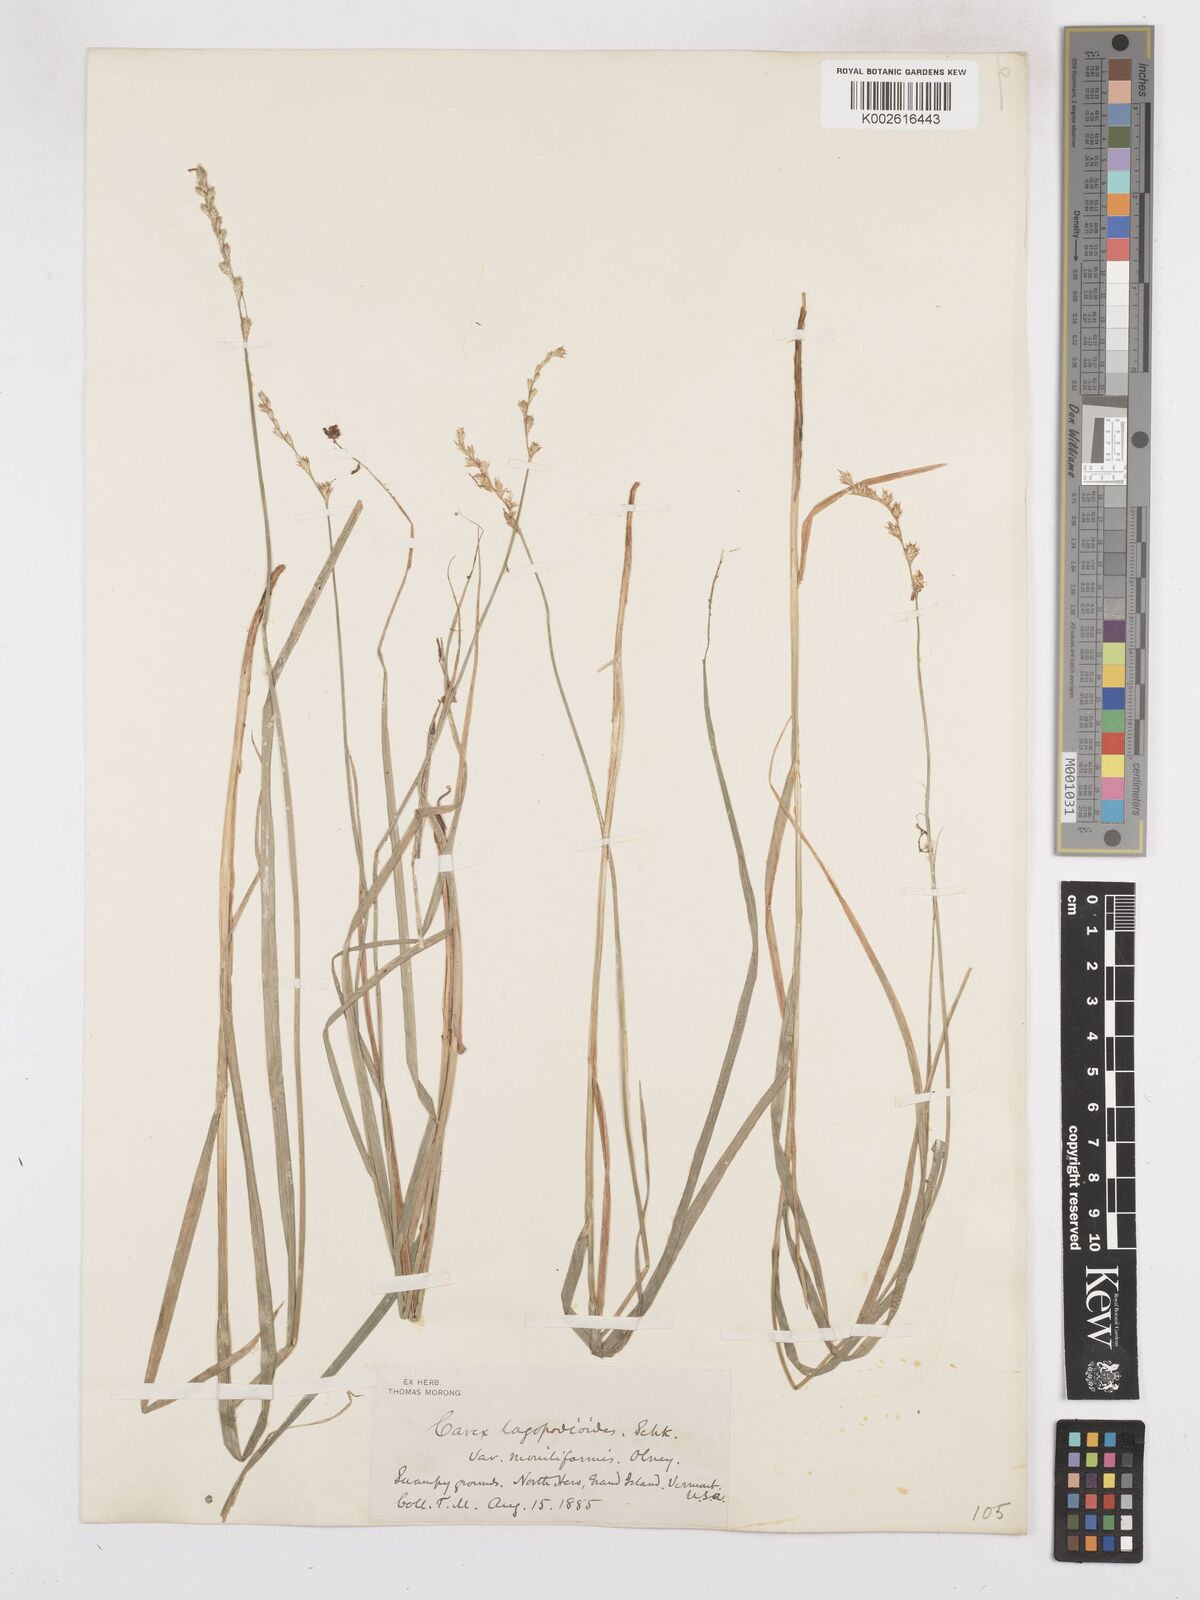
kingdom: Plantae
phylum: Tracheophyta
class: Liliopsida
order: Poales
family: Cyperaceae
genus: Carex
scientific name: Carex tribuloides
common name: Blunt broom sedge
